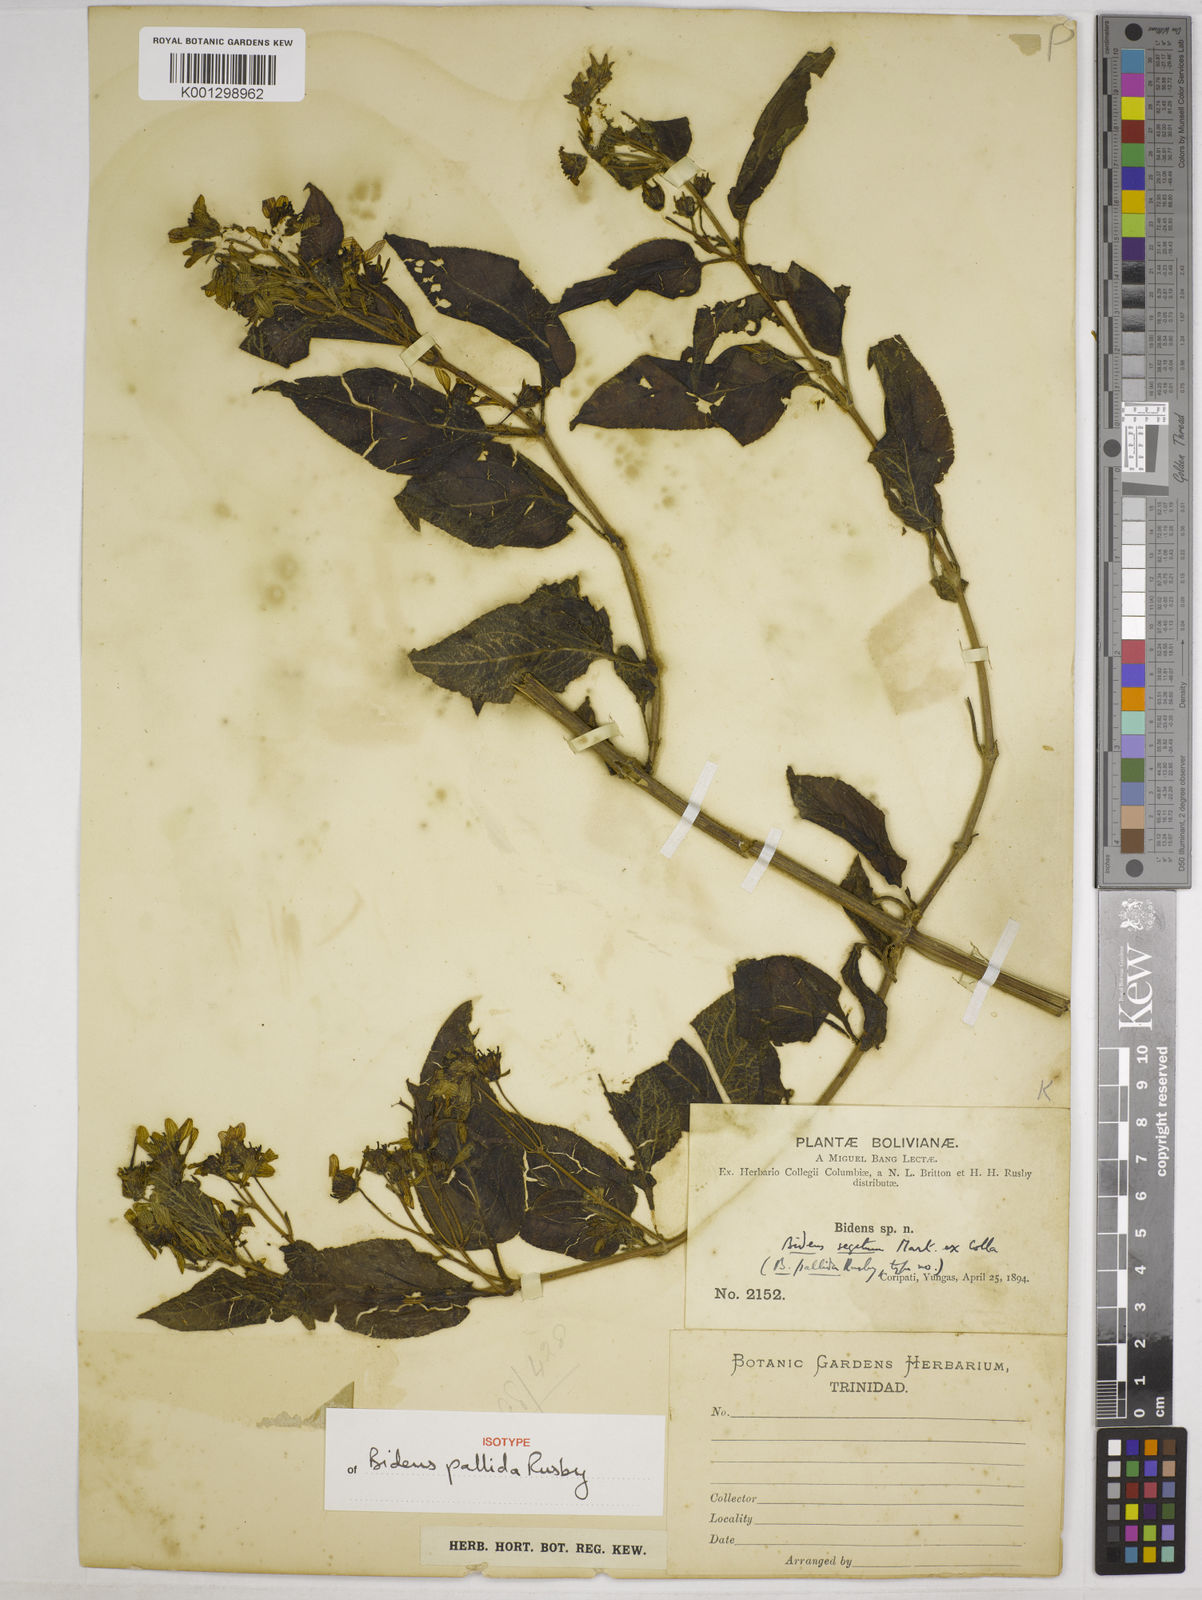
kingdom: Plantae
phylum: Tracheophyta
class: Magnoliopsida
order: Asterales
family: Asteraceae
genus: Bidens
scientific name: Bidens segetum
